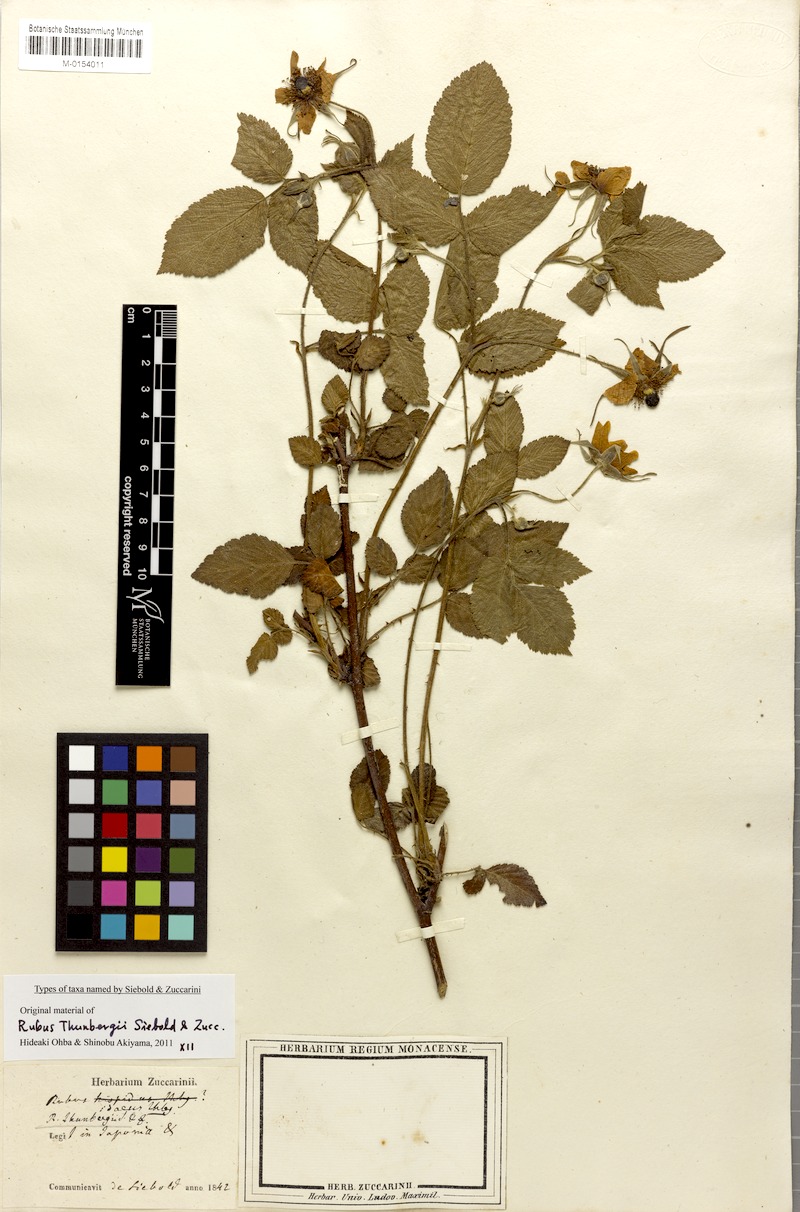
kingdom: Plantae
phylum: Tracheophyta
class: Magnoliopsida
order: Rosales
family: Rosaceae
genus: Rubus
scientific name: Rubus hirsutus
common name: Hirsute raspberry
